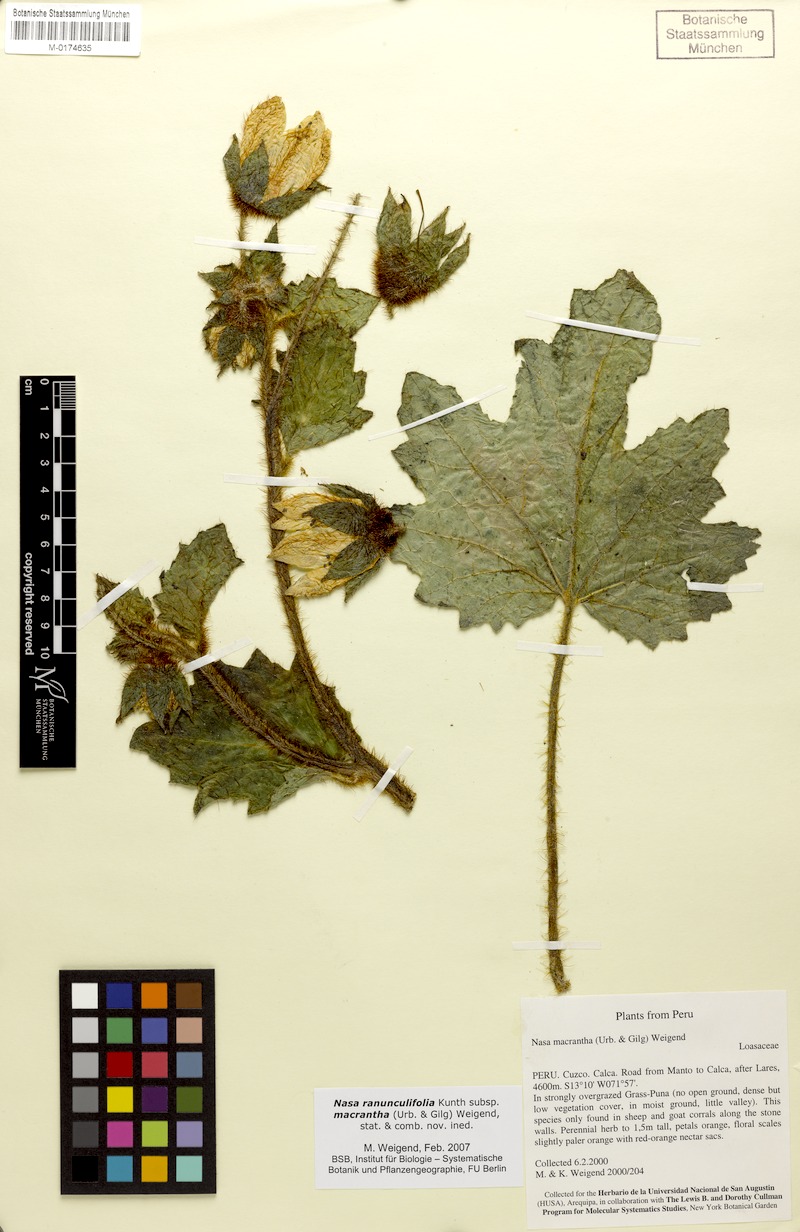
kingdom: Plantae
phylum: Tracheophyta
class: Magnoliopsida
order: Cornales
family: Loasaceae
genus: Nasa
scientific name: Nasa ranunculifolia
